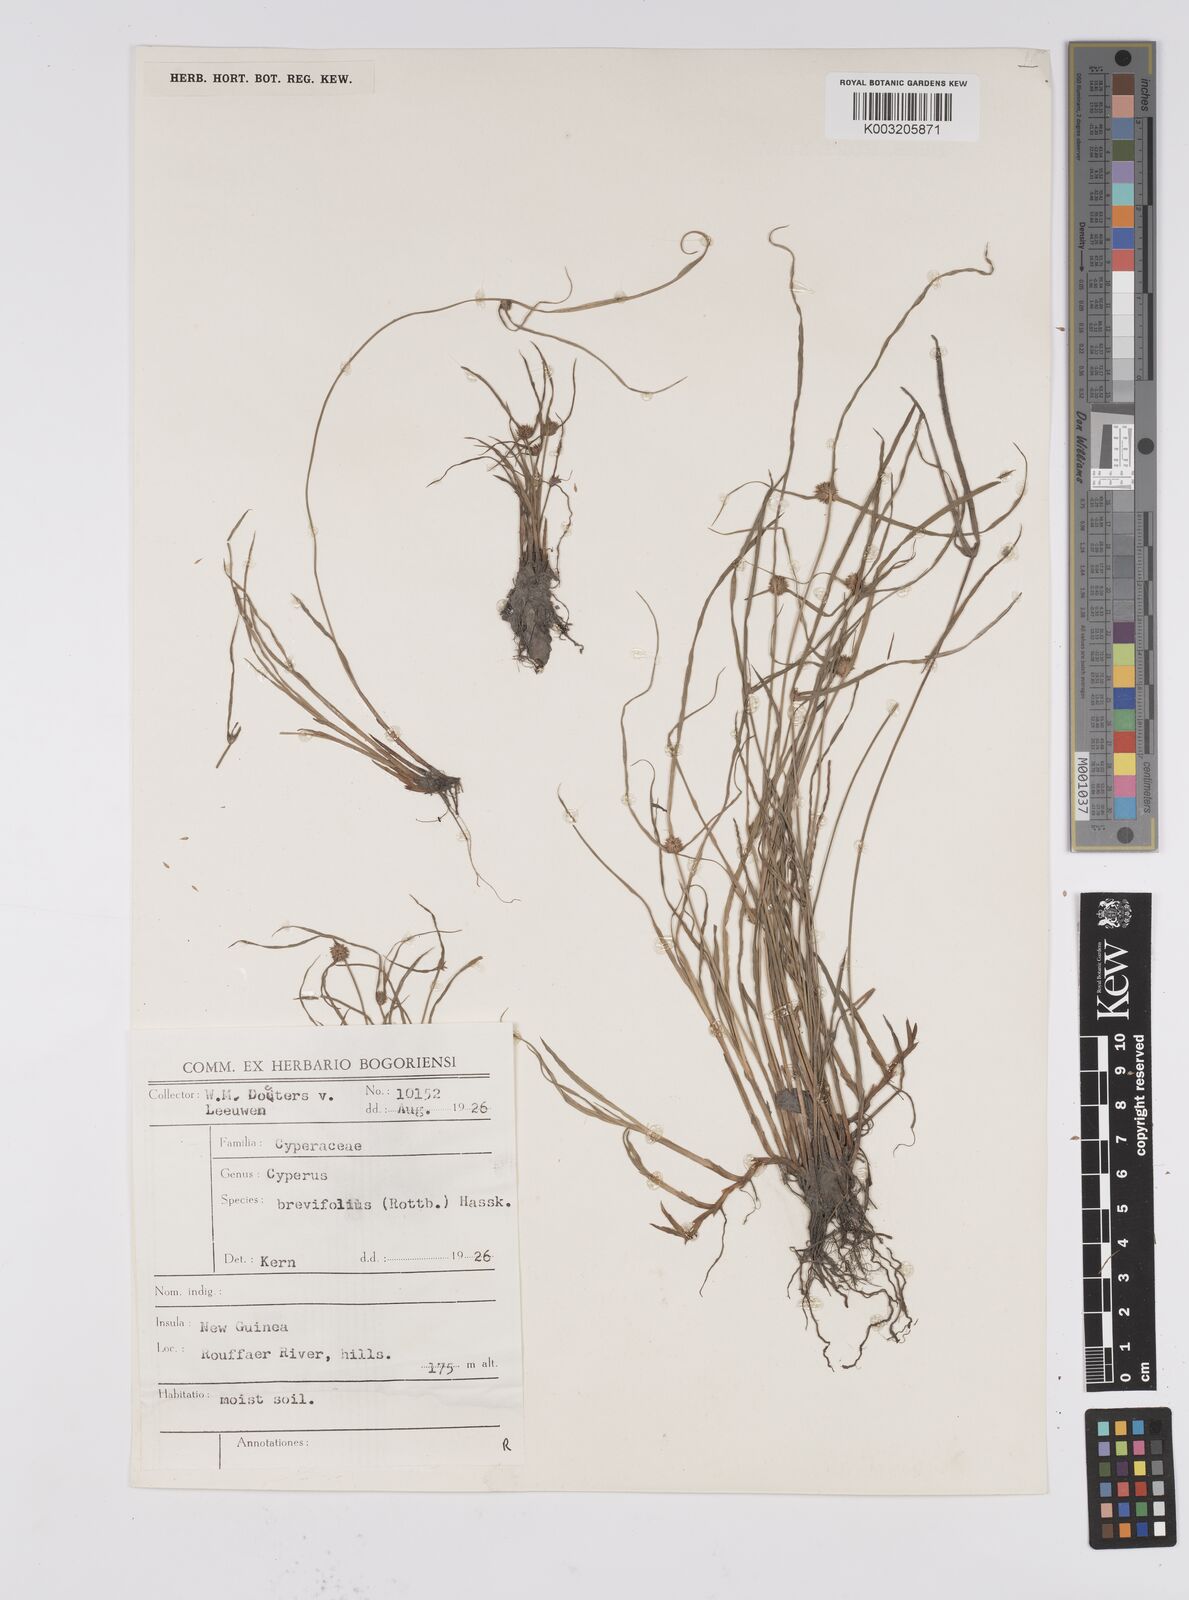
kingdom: Plantae
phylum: Tracheophyta
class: Liliopsida
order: Poales
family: Cyperaceae
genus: Cyperus
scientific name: Cyperus brevifolius
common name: Globe kyllinga
